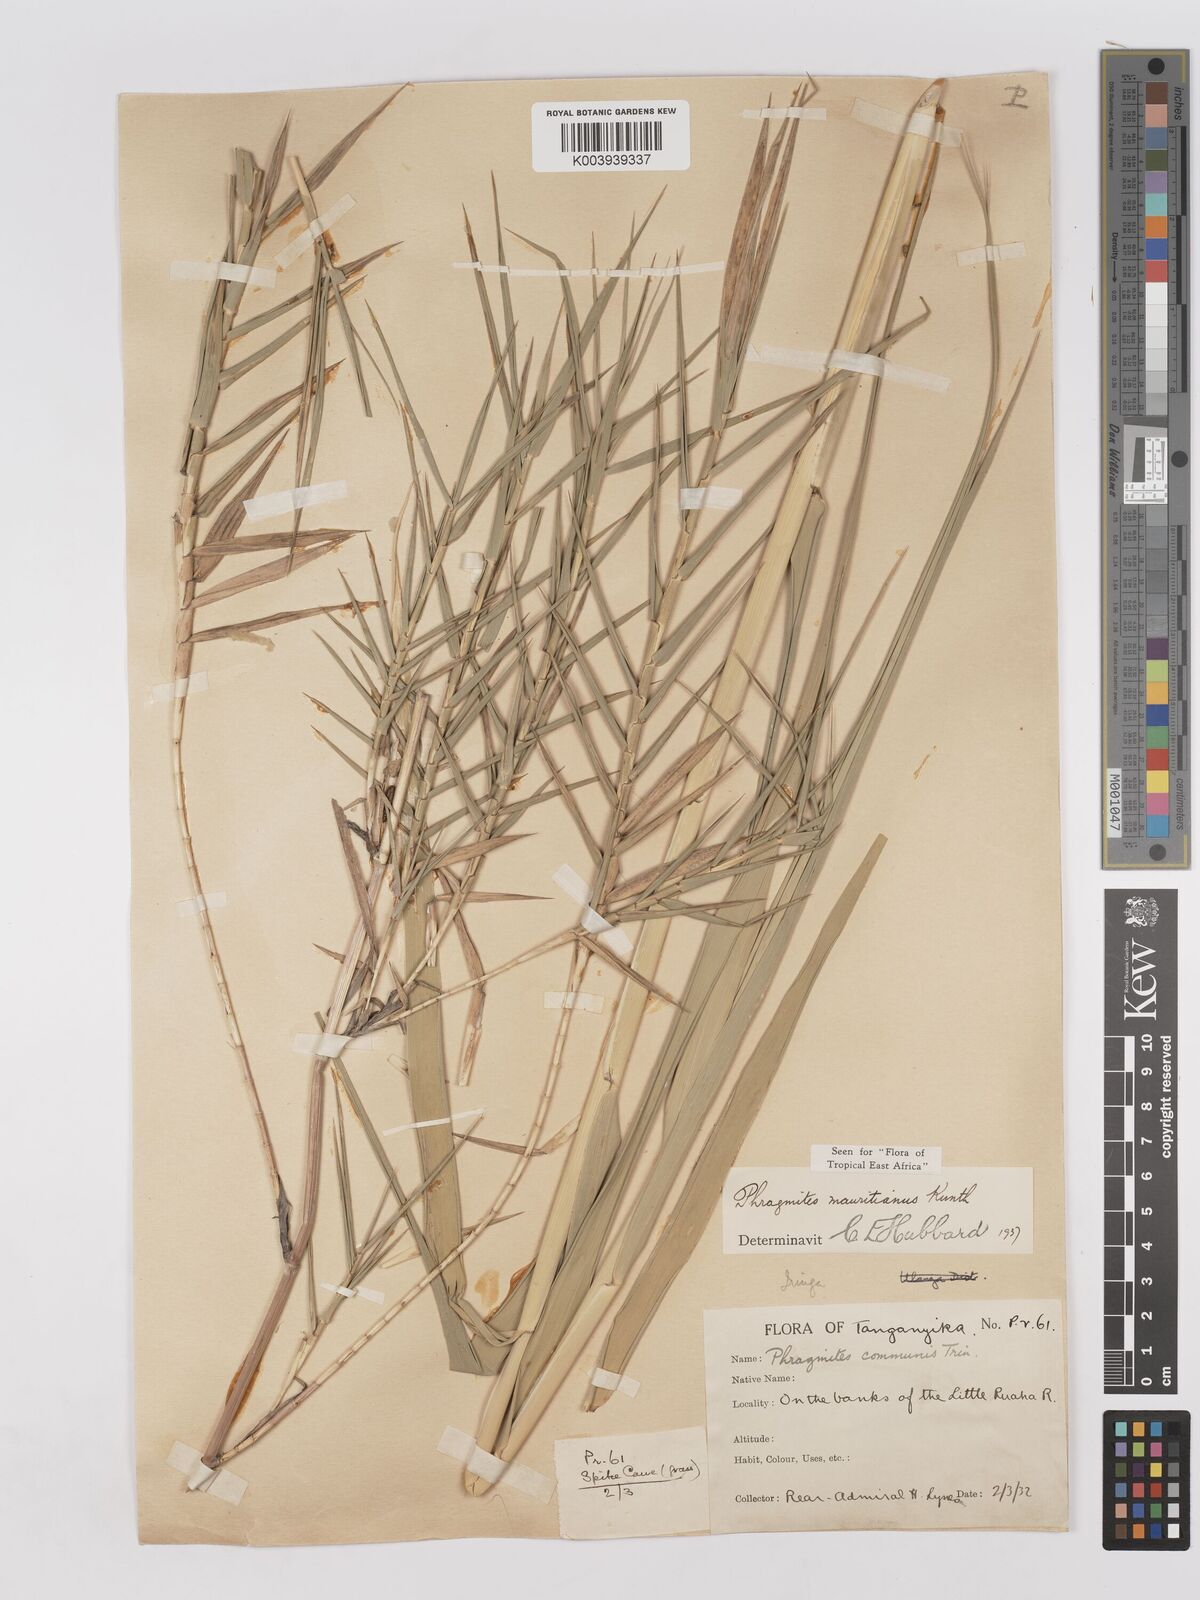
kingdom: Plantae
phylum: Tracheophyta
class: Liliopsida
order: Poales
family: Poaceae
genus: Phragmites
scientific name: Phragmites mauritianus
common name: Reed grass
